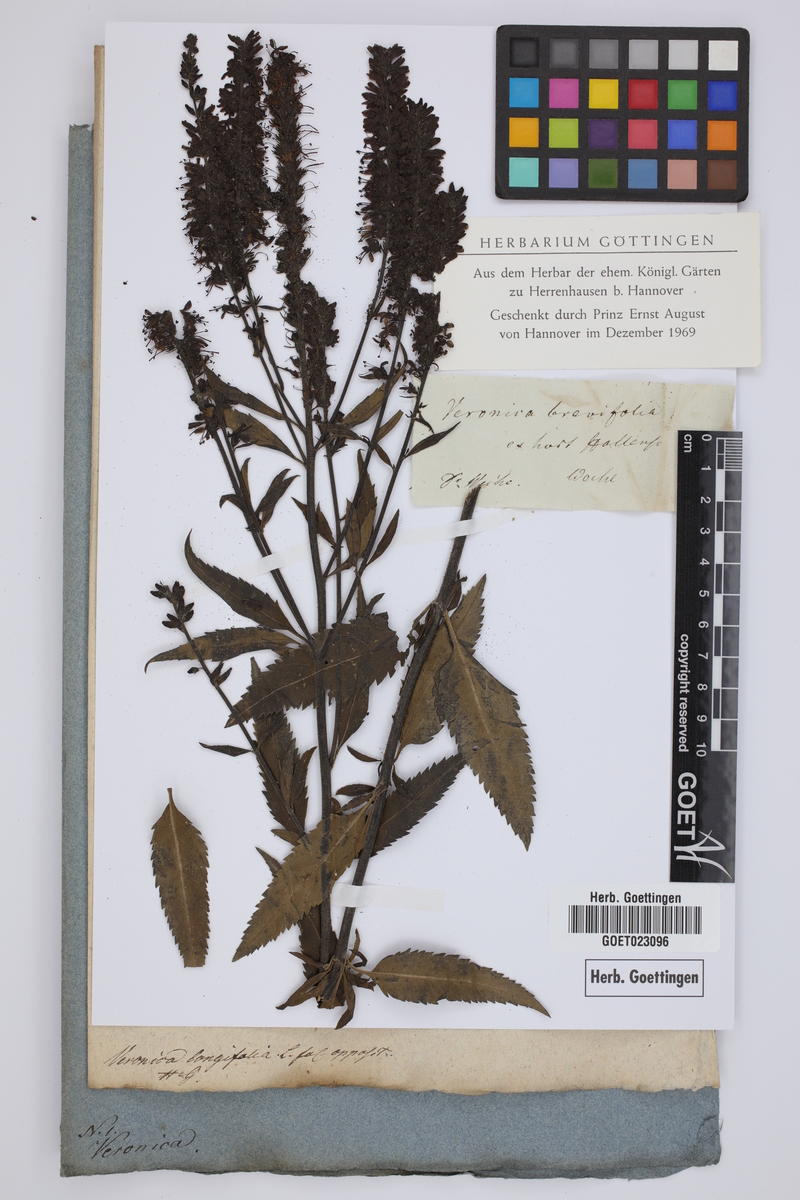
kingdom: Plantae
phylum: Tracheophyta
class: Magnoliopsida
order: Lamiales
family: Plantaginaceae
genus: Veronica
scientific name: Veronica
